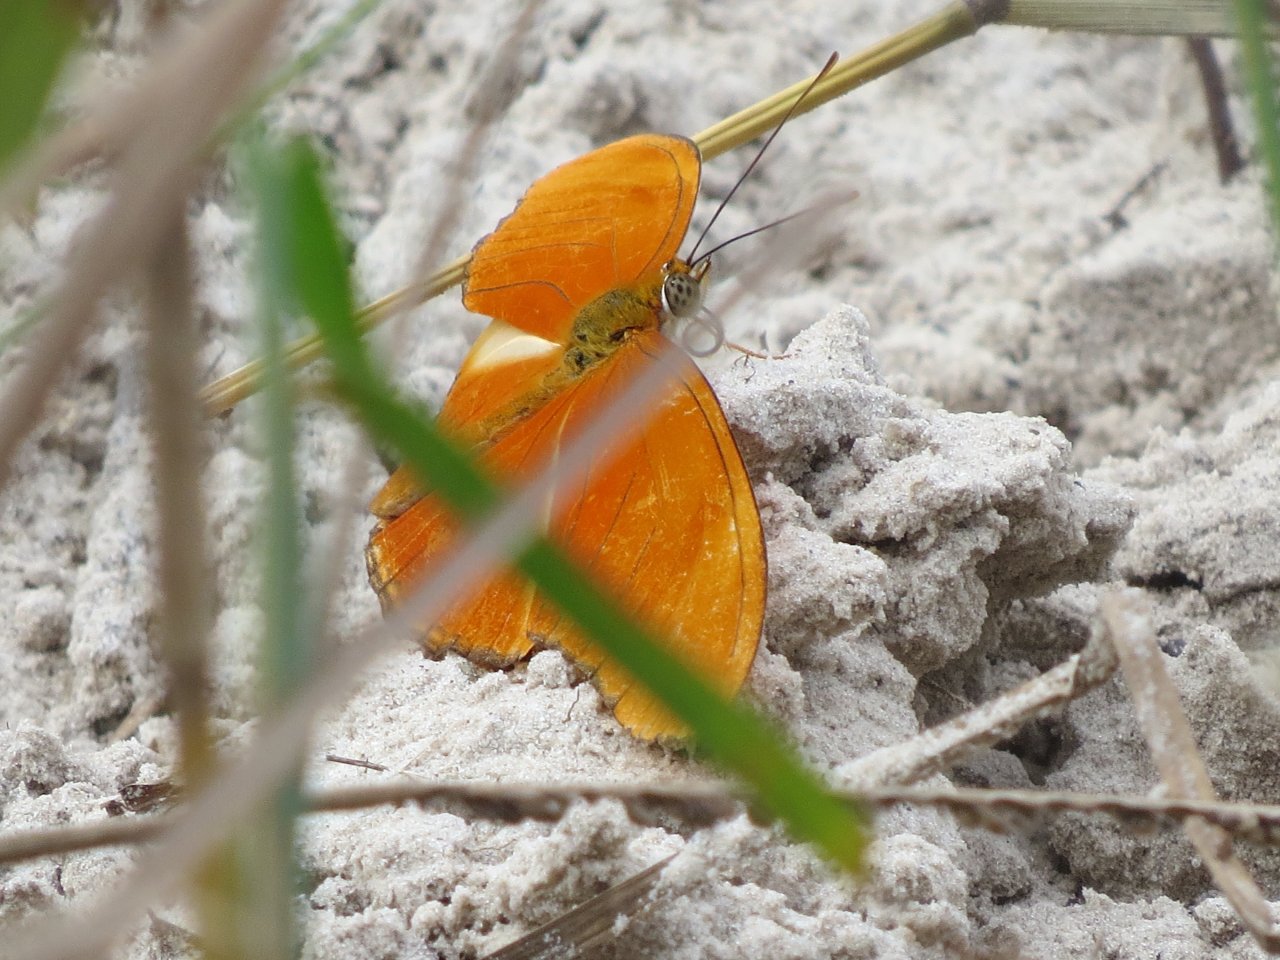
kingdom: Animalia
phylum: Arthropoda
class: Insecta
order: Lepidoptera
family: Nymphalidae
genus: Dryas
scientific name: Dryas iulia
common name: Julia
